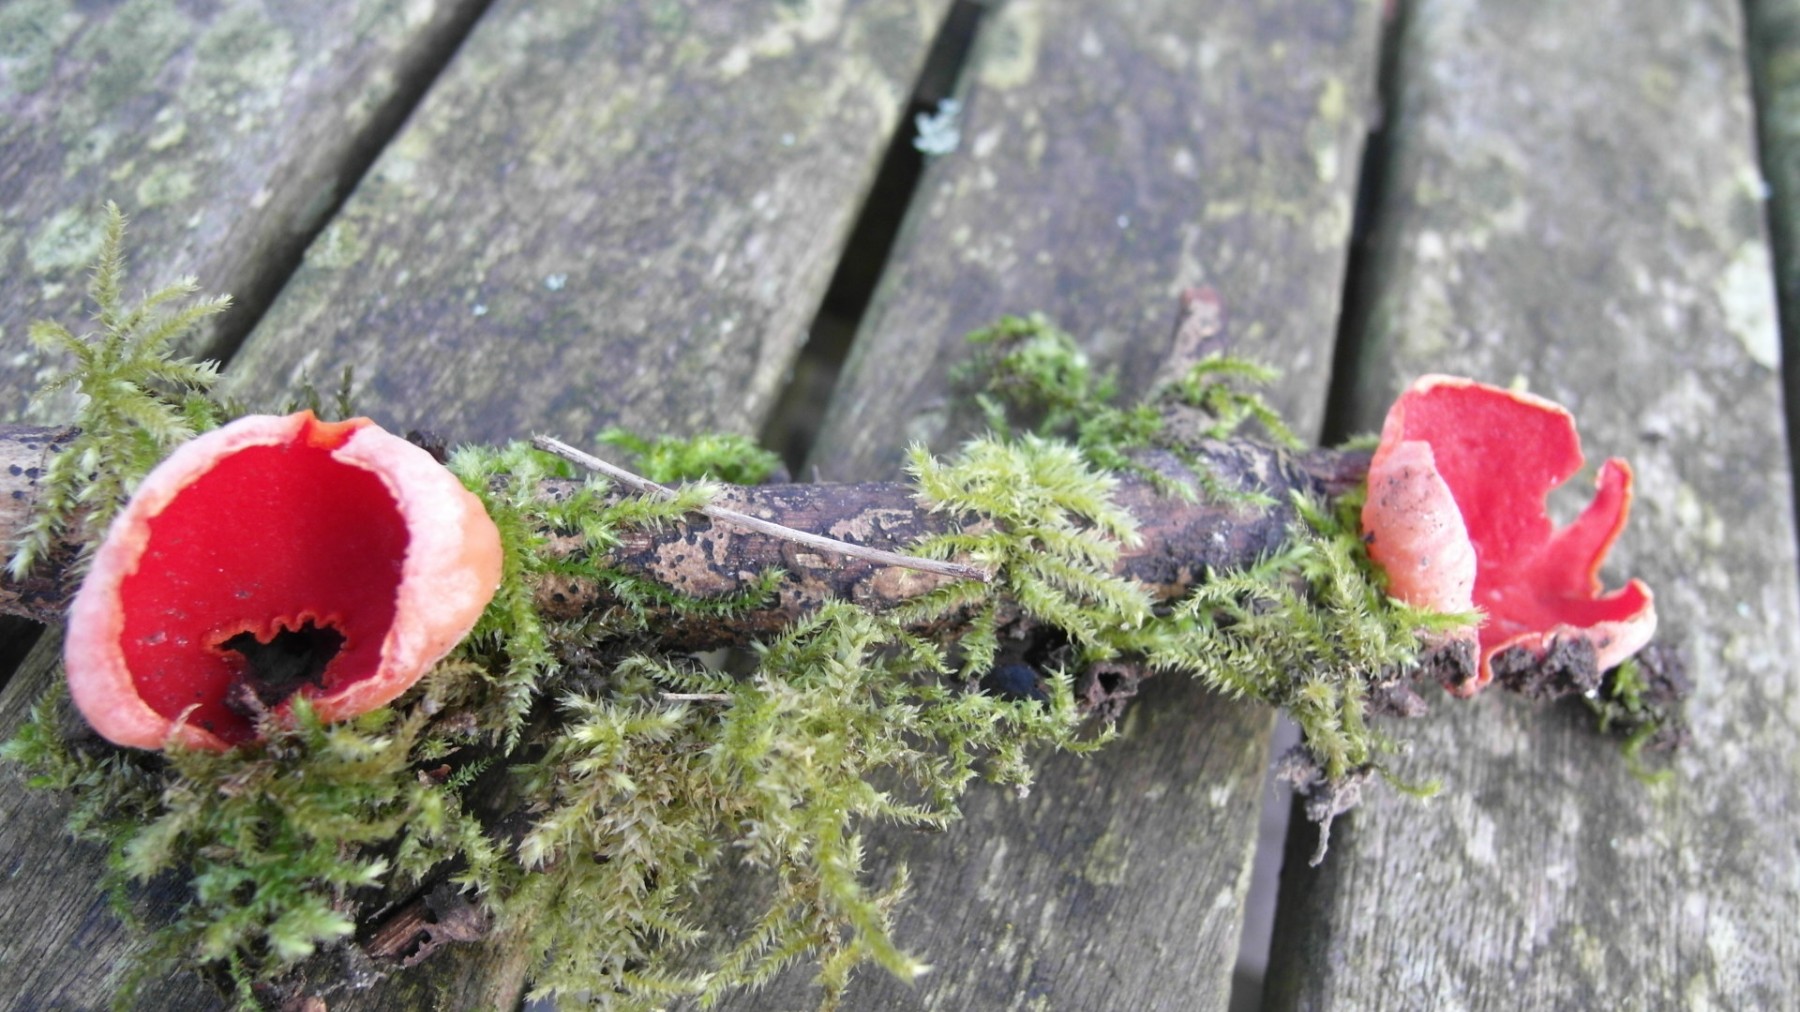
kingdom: Fungi
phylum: Ascomycota
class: Pezizomycetes
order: Pezizales
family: Sarcoscyphaceae
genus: Sarcoscypha
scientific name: Sarcoscypha austriaca
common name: krølhåret pragtbæger
